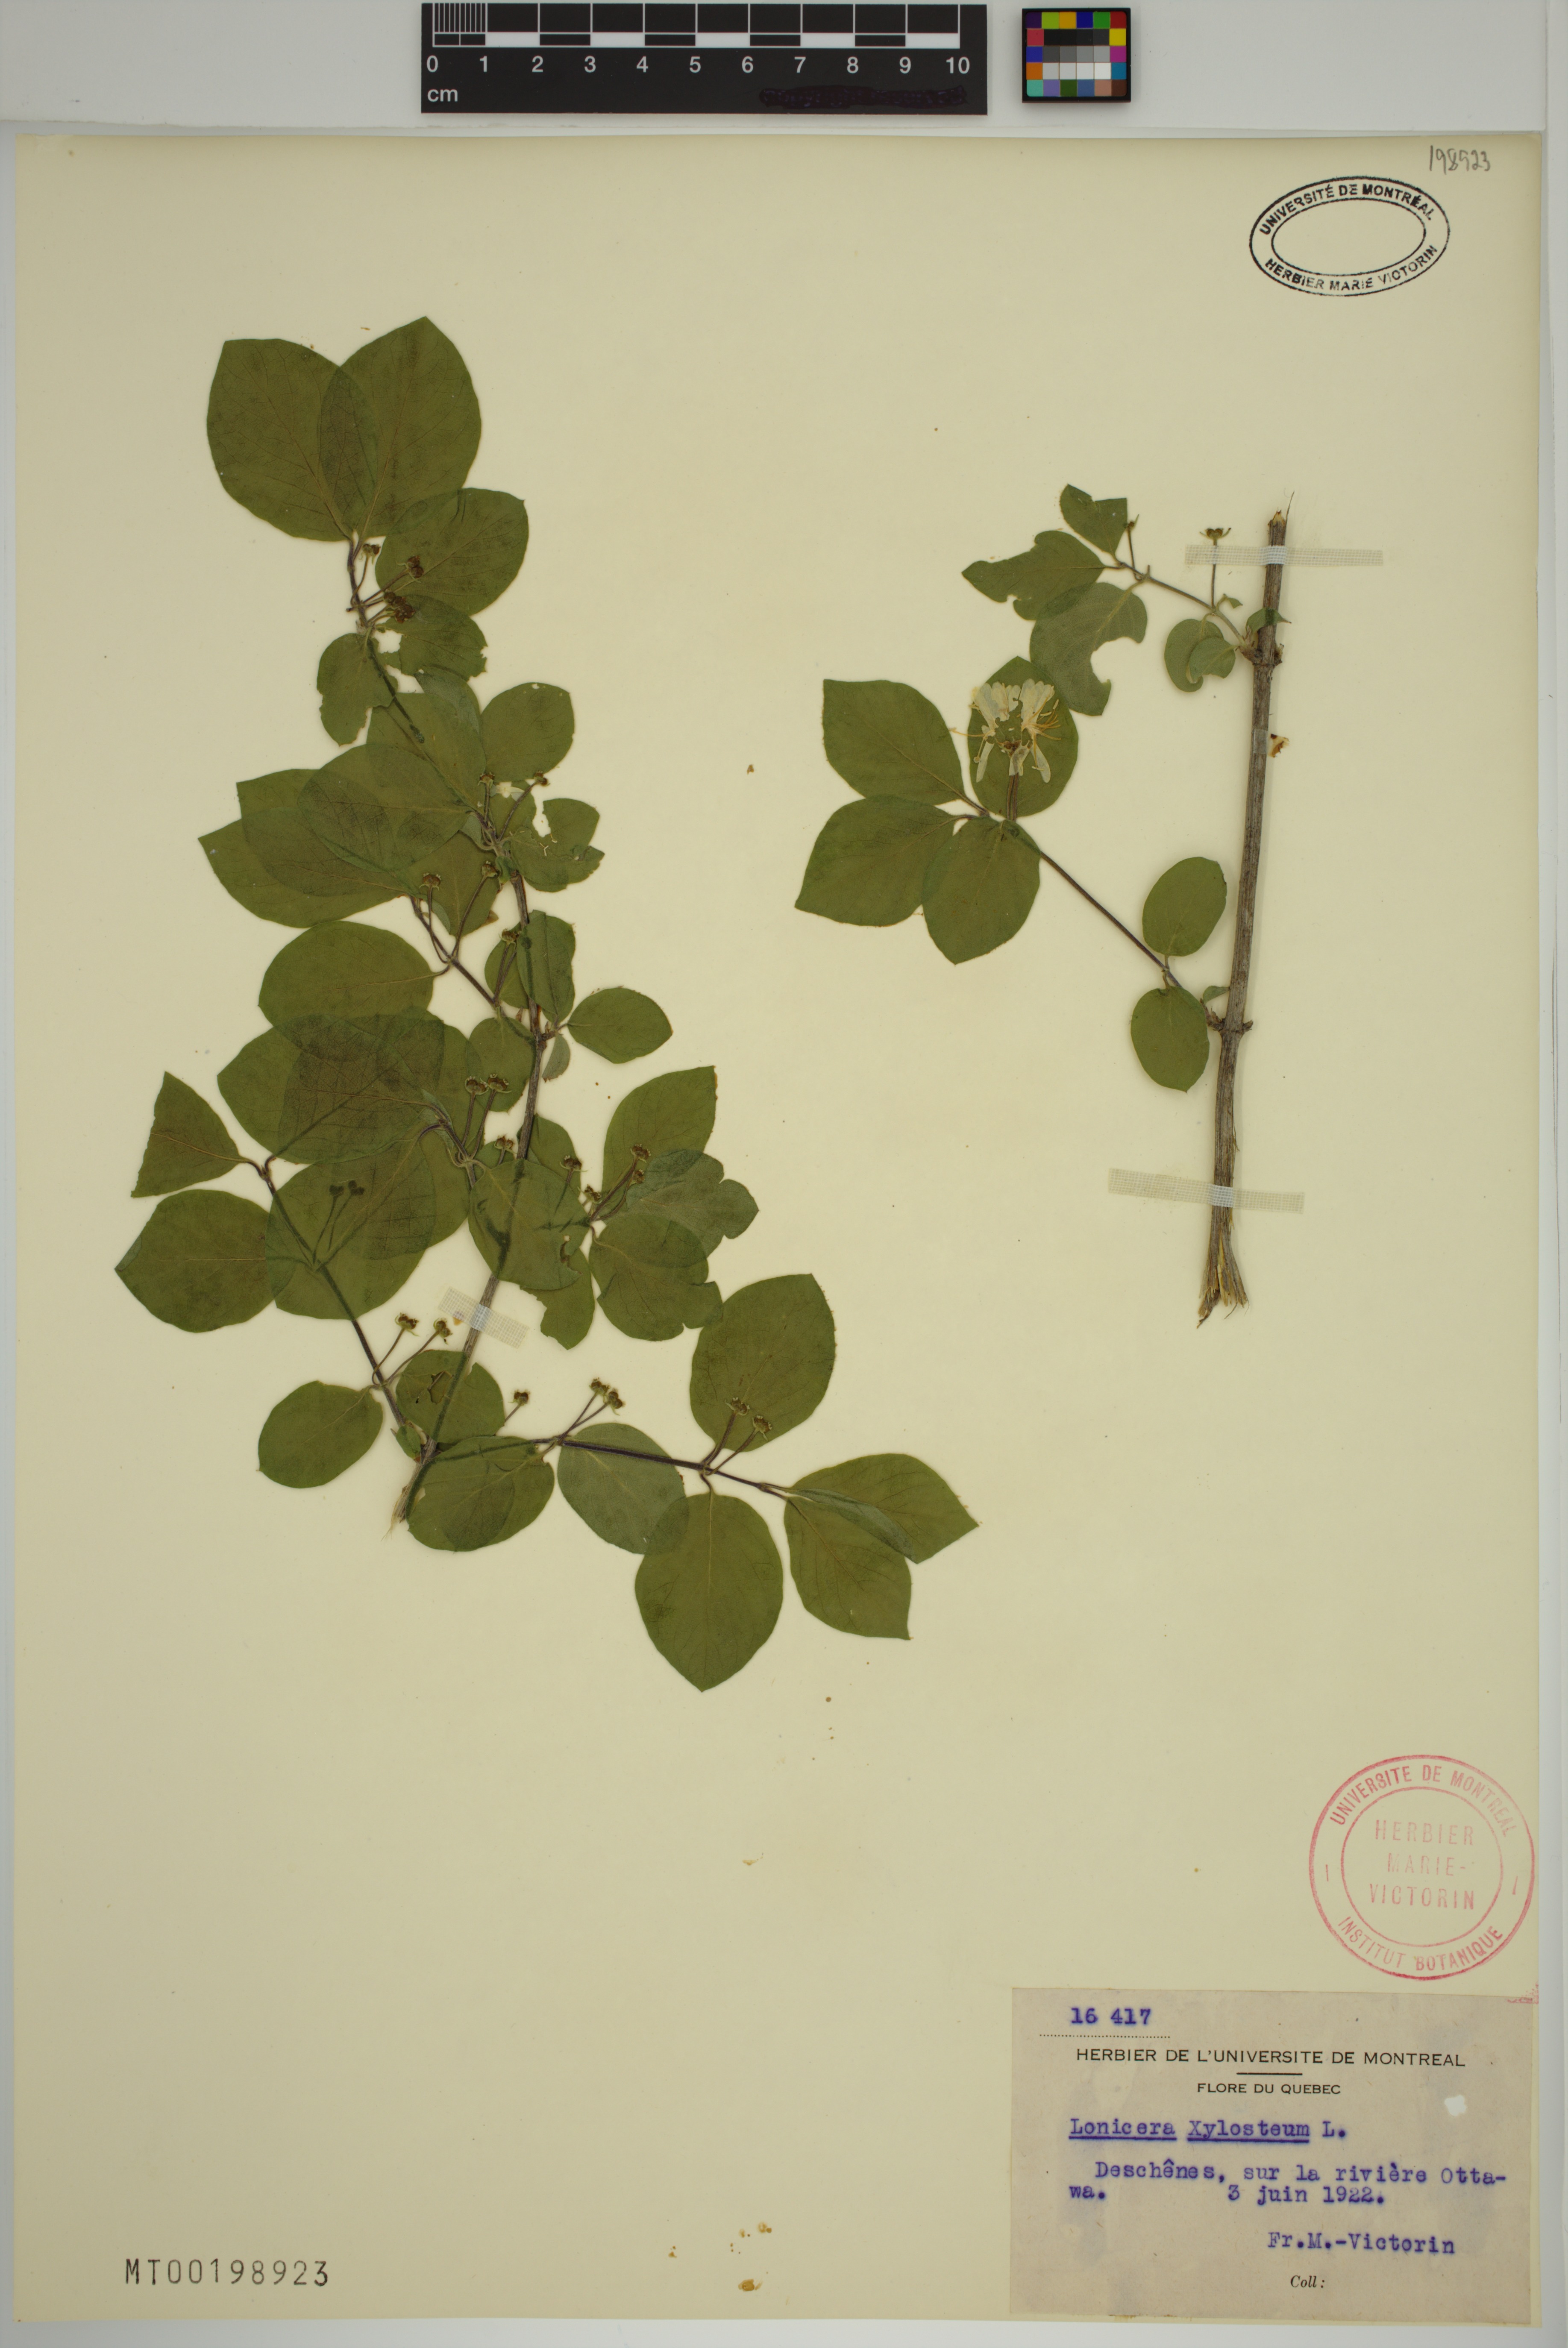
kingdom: Plantae
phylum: Tracheophyta
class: Magnoliopsida
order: Dipsacales
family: Caprifoliaceae
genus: Lonicera
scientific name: Lonicera xylosteum
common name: Fly honeysuckle
